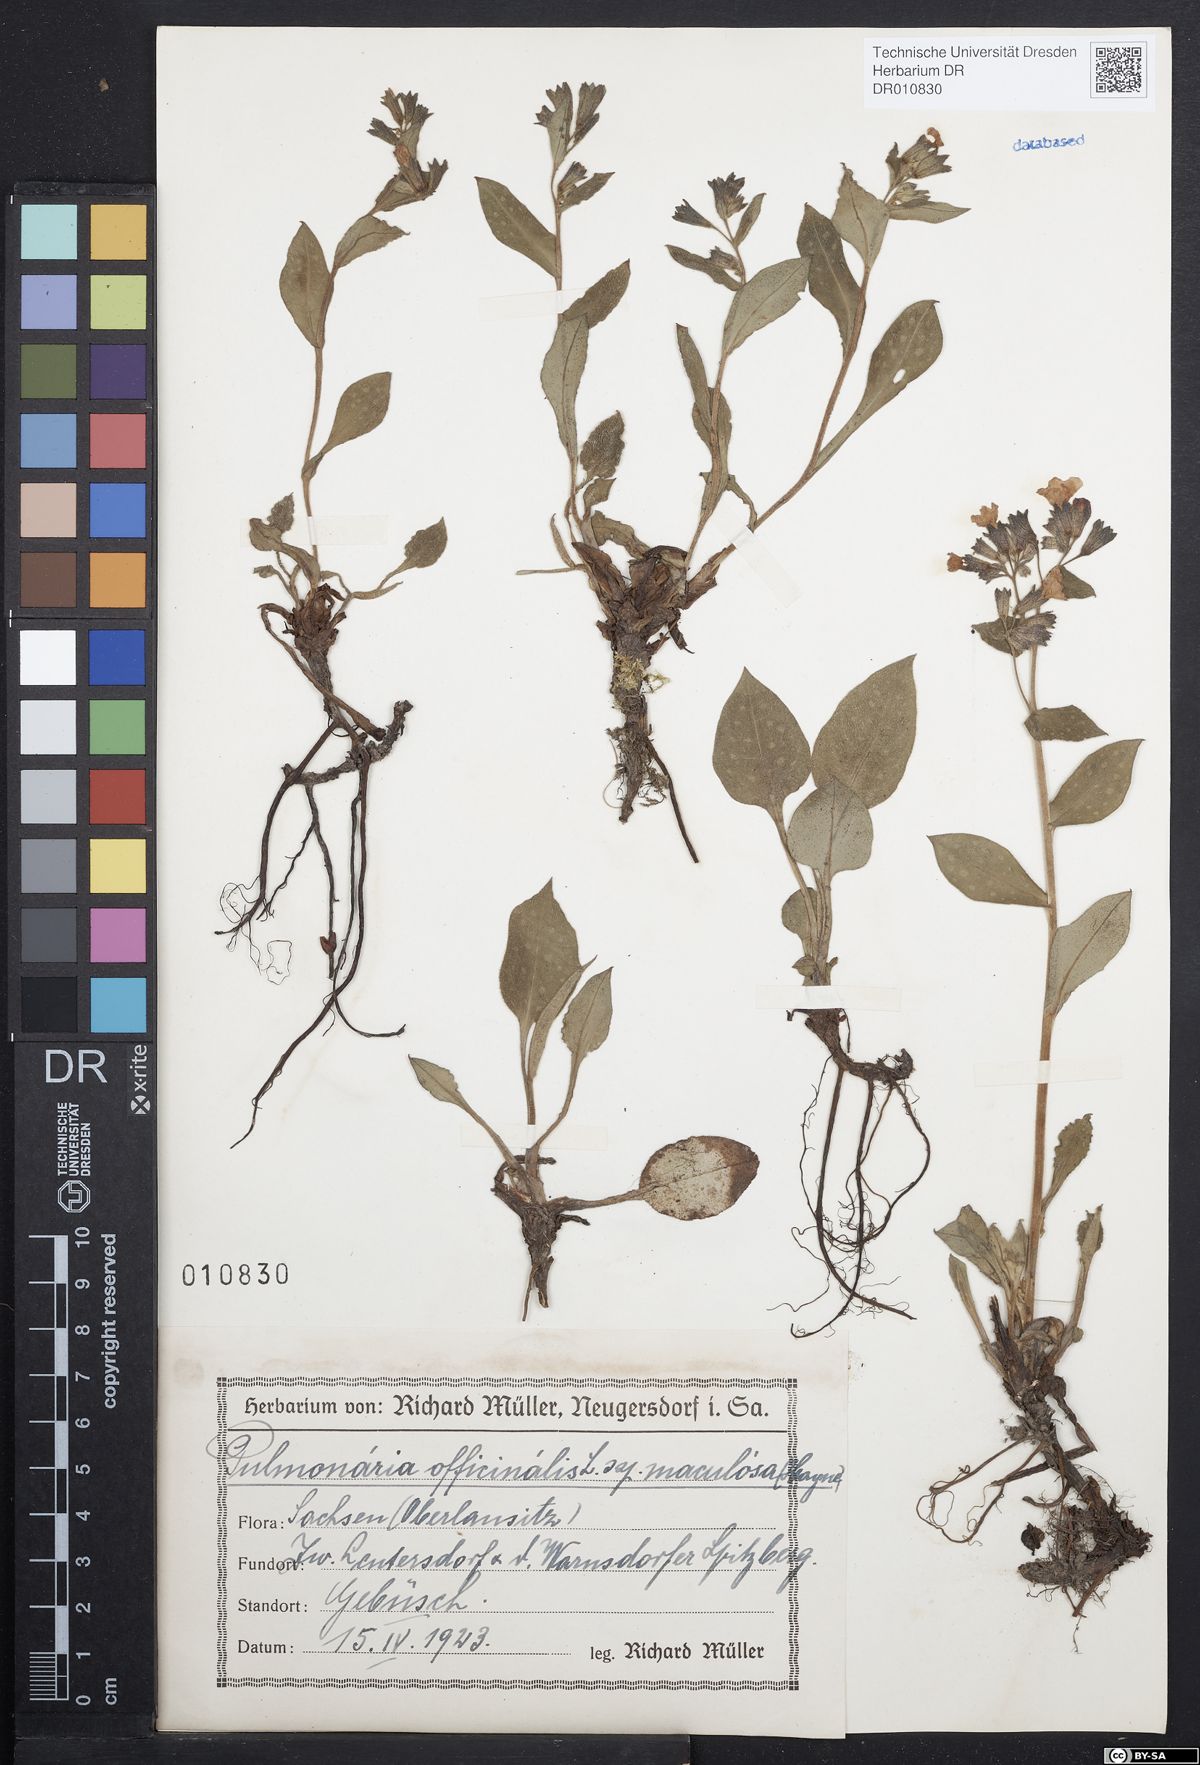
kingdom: Plantae
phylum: Tracheophyta
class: Magnoliopsida
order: Boraginales
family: Boraginaceae
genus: Pulmonaria
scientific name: Pulmonaria officinalis
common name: Lungwort
